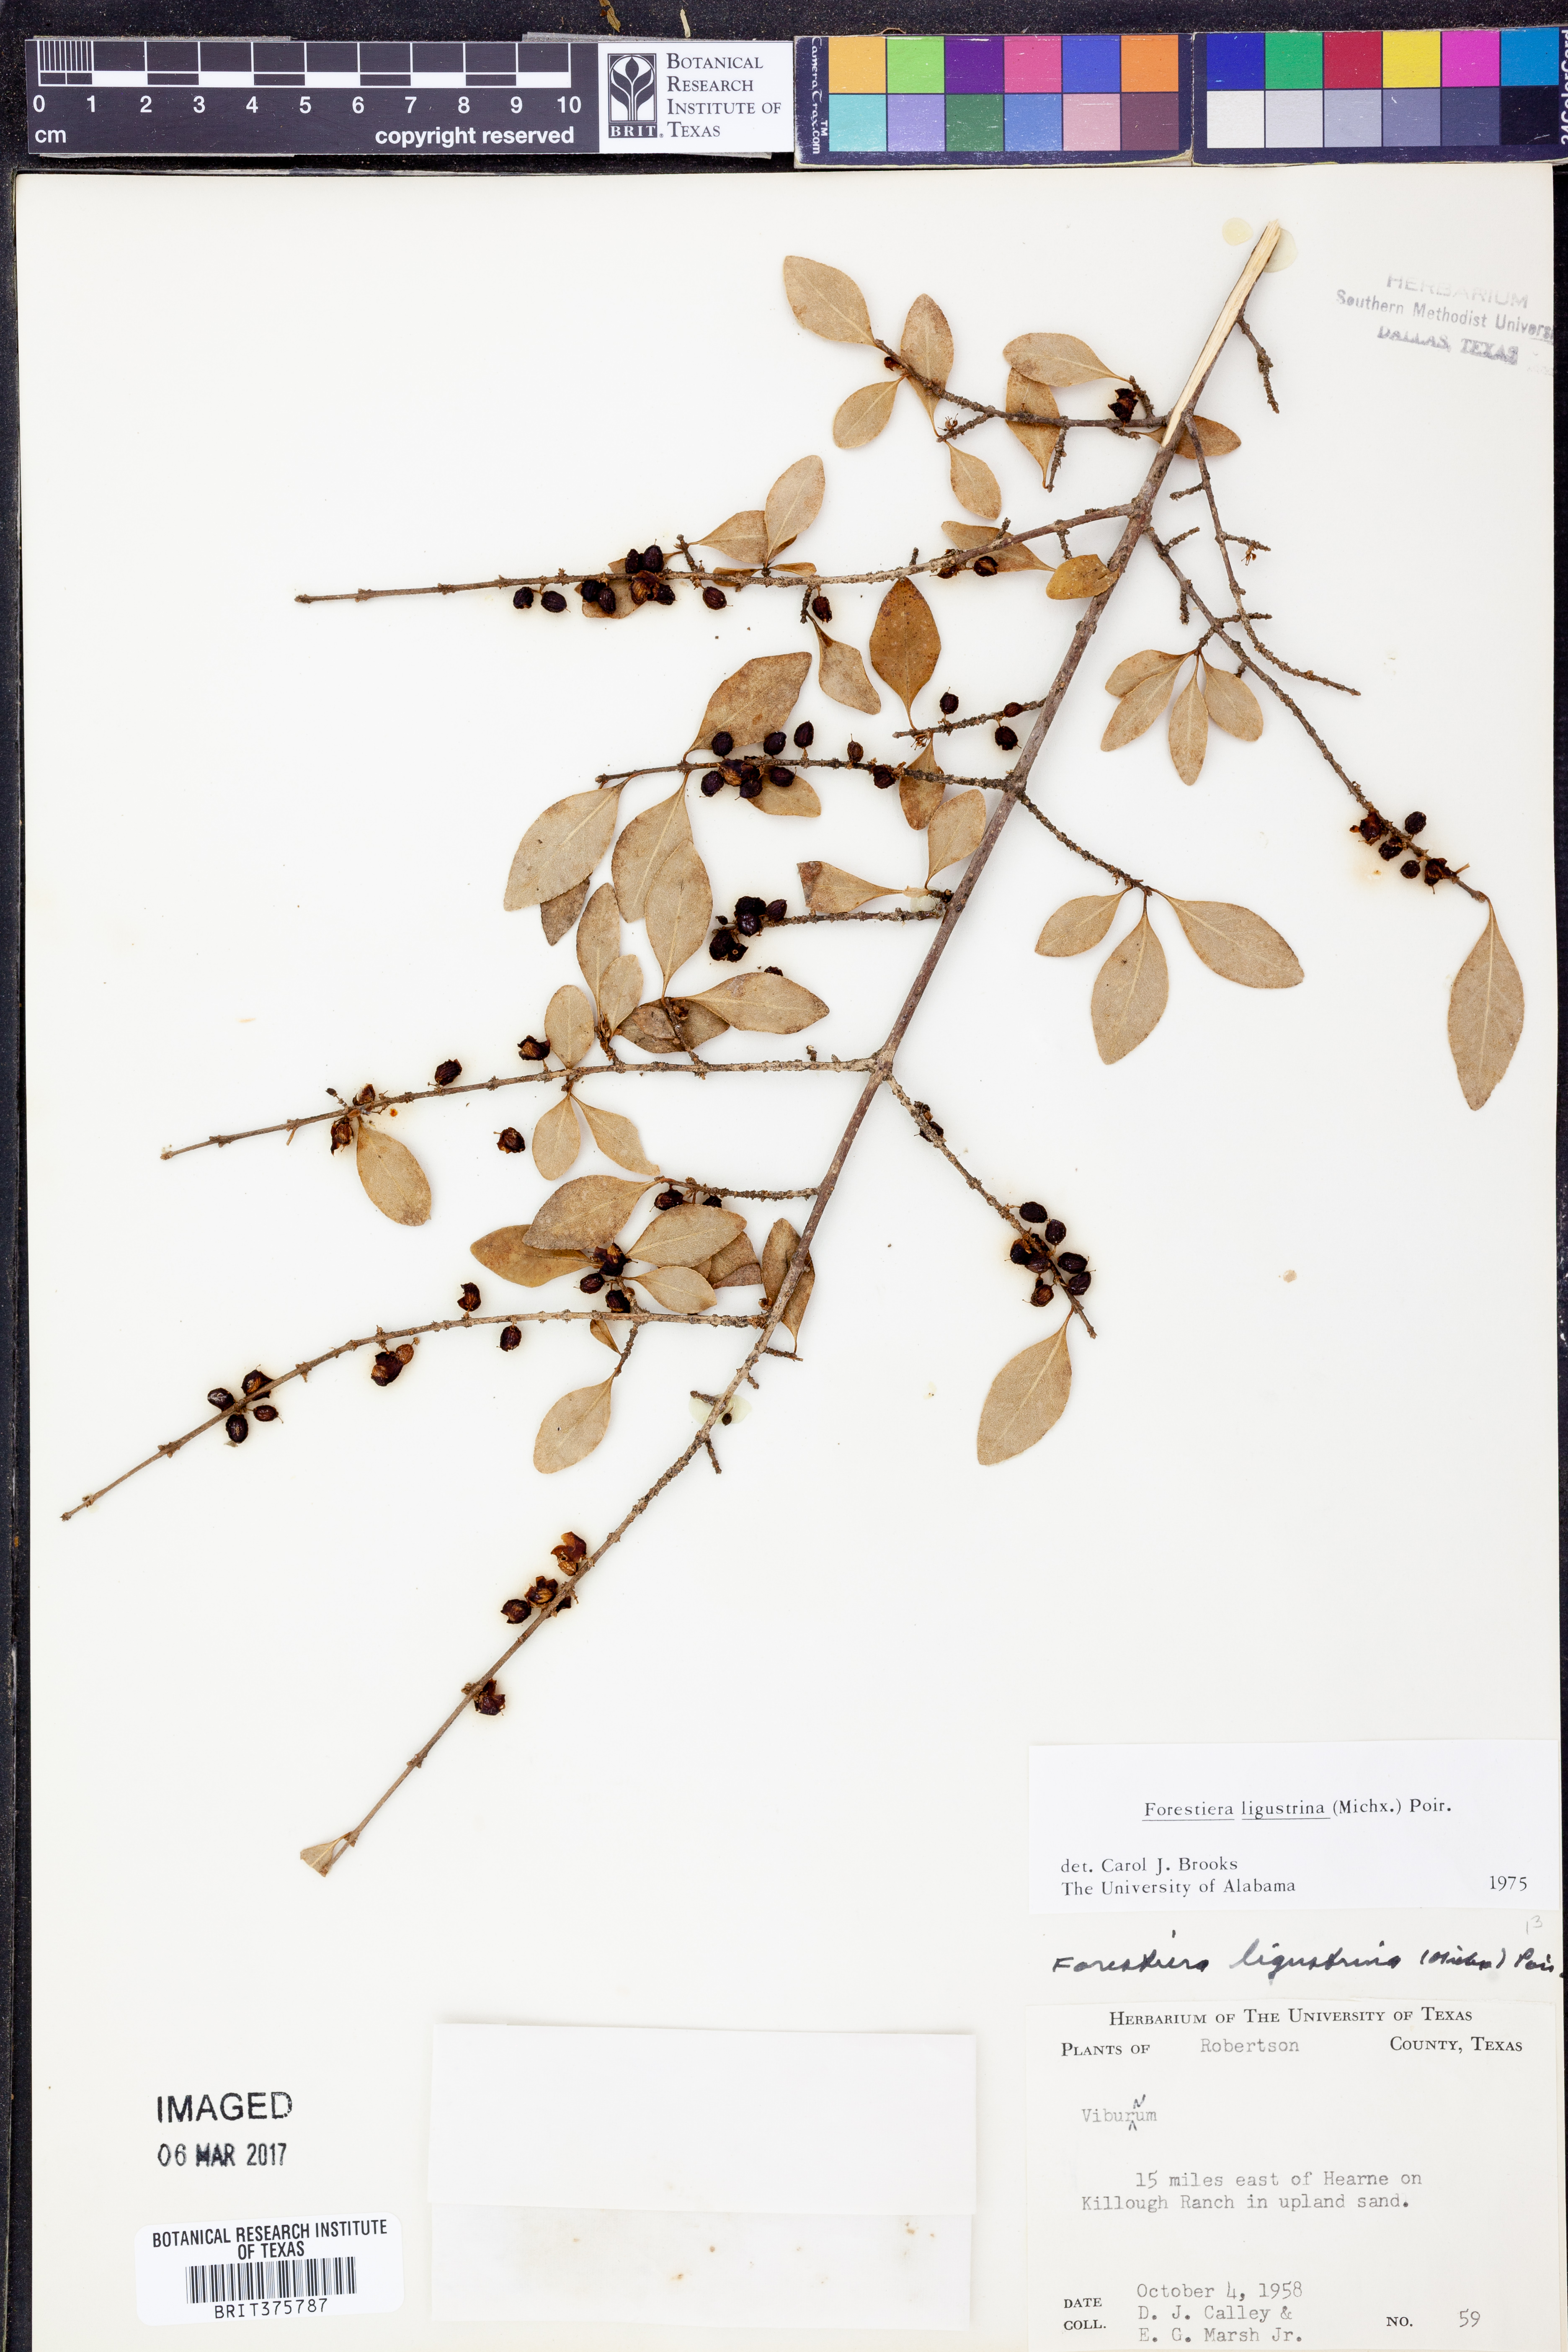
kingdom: Plantae
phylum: Tracheophyta
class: Magnoliopsida
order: Lamiales
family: Oleaceae
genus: Forestiera
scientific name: Forestiera ligustrina
